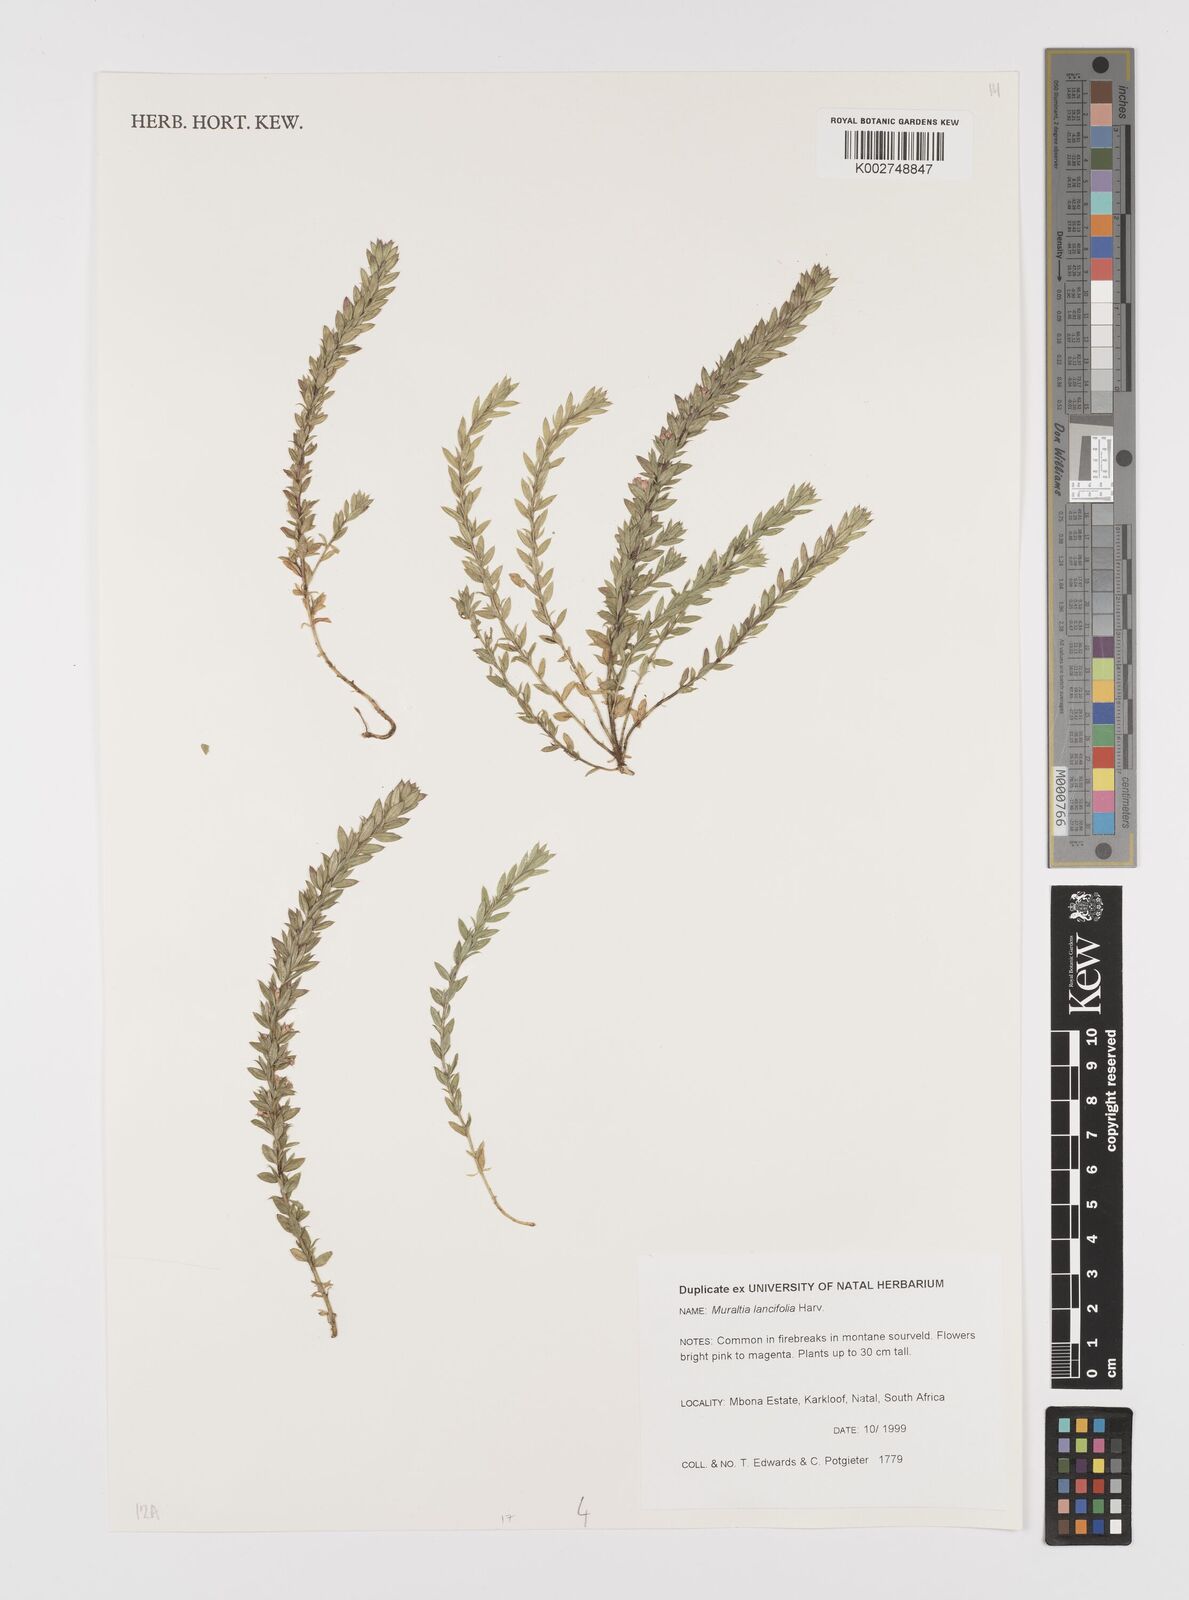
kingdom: Plantae
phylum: Tracheophyta
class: Magnoliopsida
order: Fabales
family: Polygalaceae
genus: Muraltia
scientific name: Muraltia lancifolia
